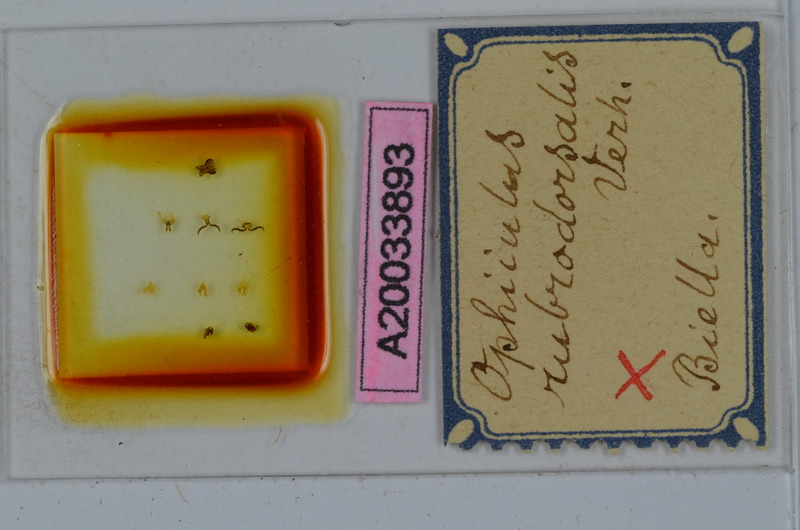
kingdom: Animalia
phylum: Arthropoda
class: Diplopoda
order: Julida
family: Julidae
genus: Ophyiulus
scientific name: Ophyiulus rubrodorsalis
